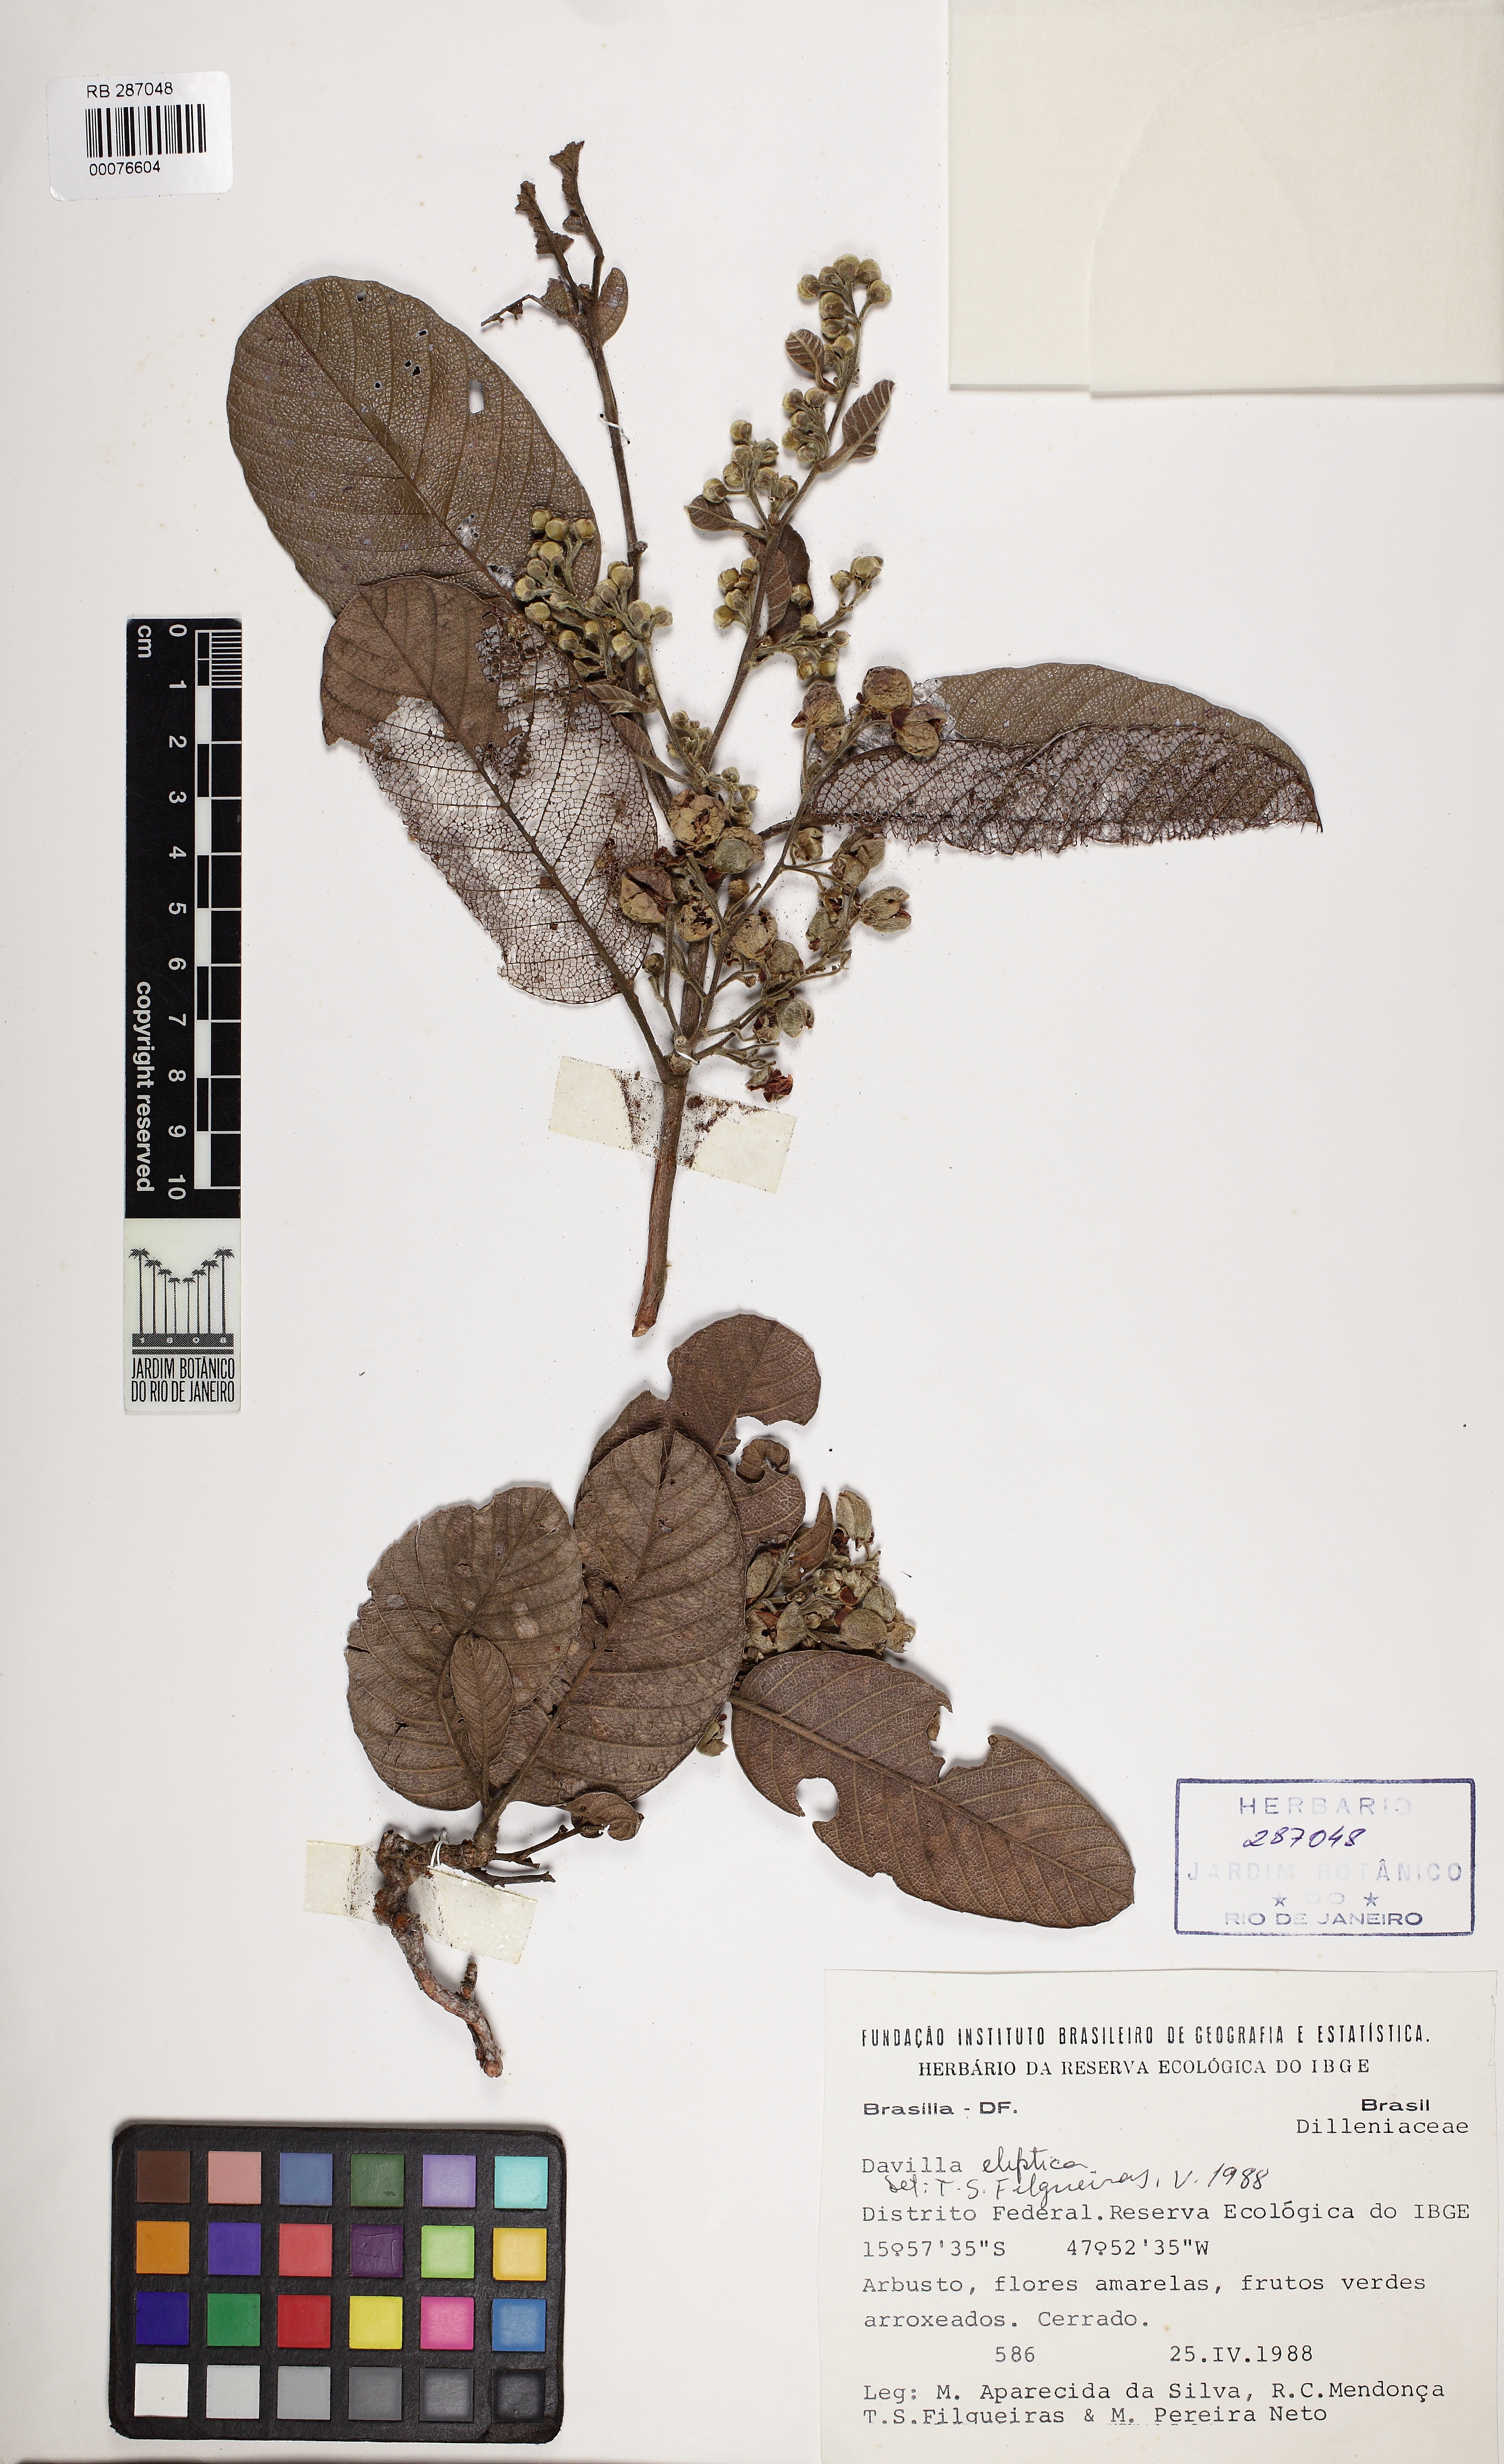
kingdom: Plantae
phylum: Tracheophyta
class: Magnoliopsida
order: Dilleniales
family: Dilleniaceae
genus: Davilla
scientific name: Davilla elliptica
